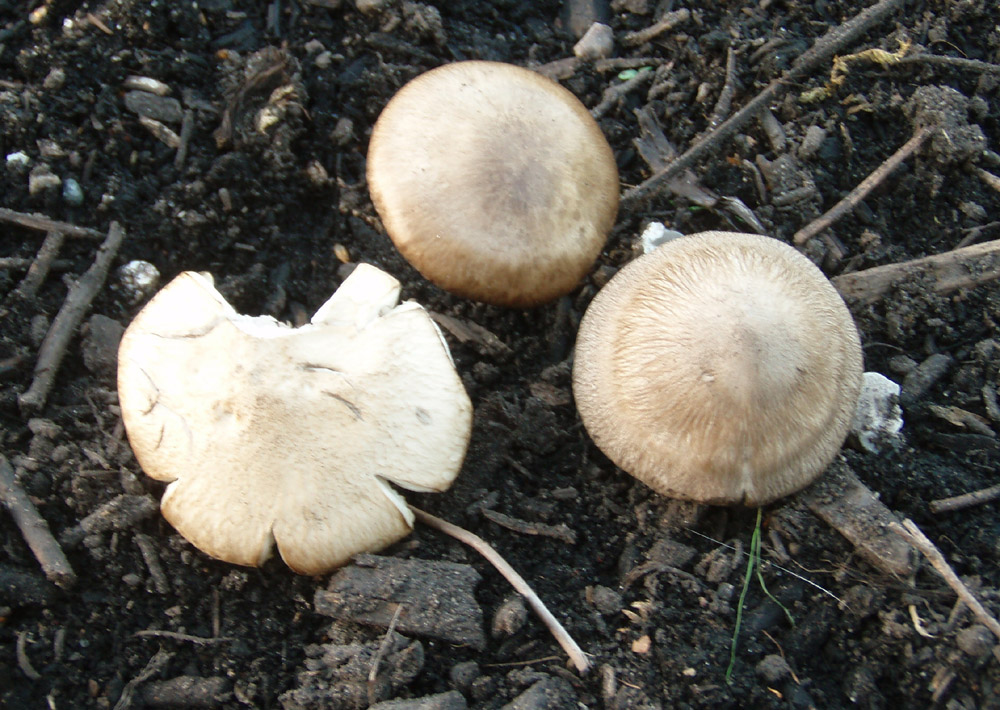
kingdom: Fungi
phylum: Basidiomycota
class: Agaricomycetes
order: Agaricales
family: Lyophyllaceae
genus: Lyophyllum
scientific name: Lyophyllum paelochroum
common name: blånende gråblad
